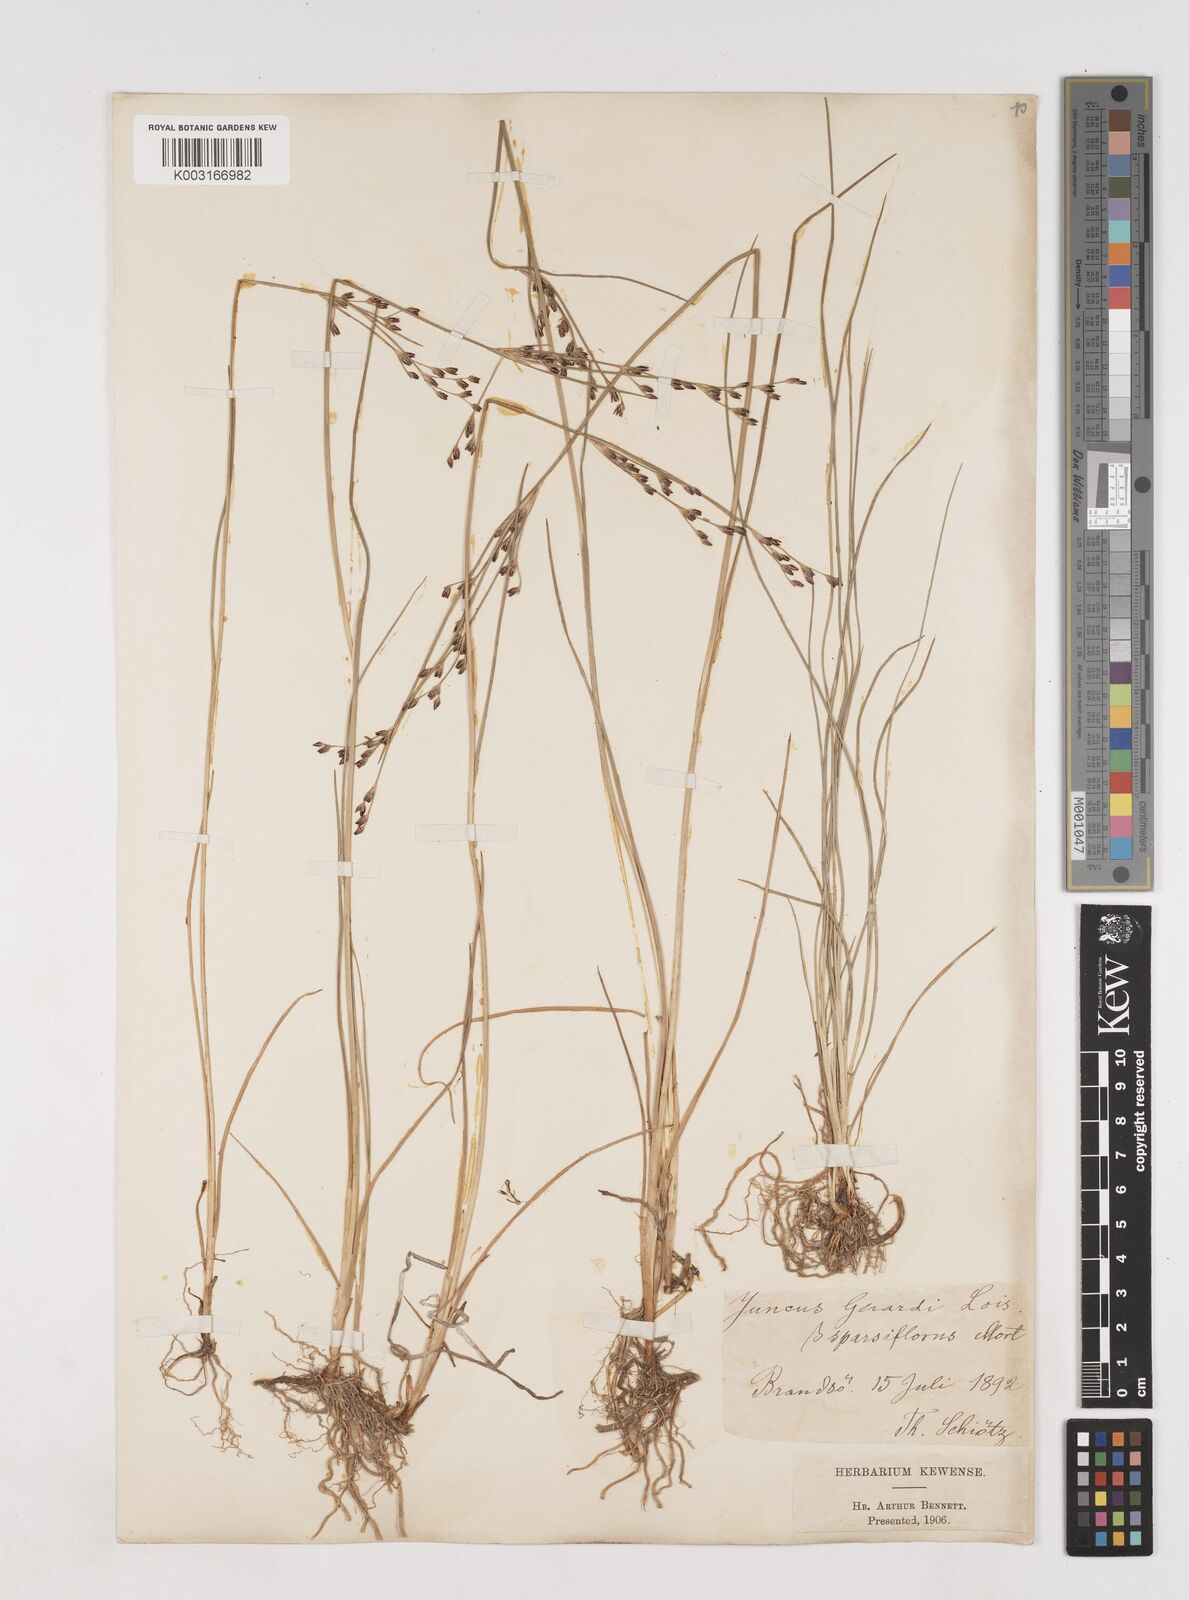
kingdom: Plantae
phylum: Tracheophyta
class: Liliopsida
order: Poales
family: Juncaceae
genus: Juncus
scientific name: Juncus gerardi
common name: Saltmarsh rush
